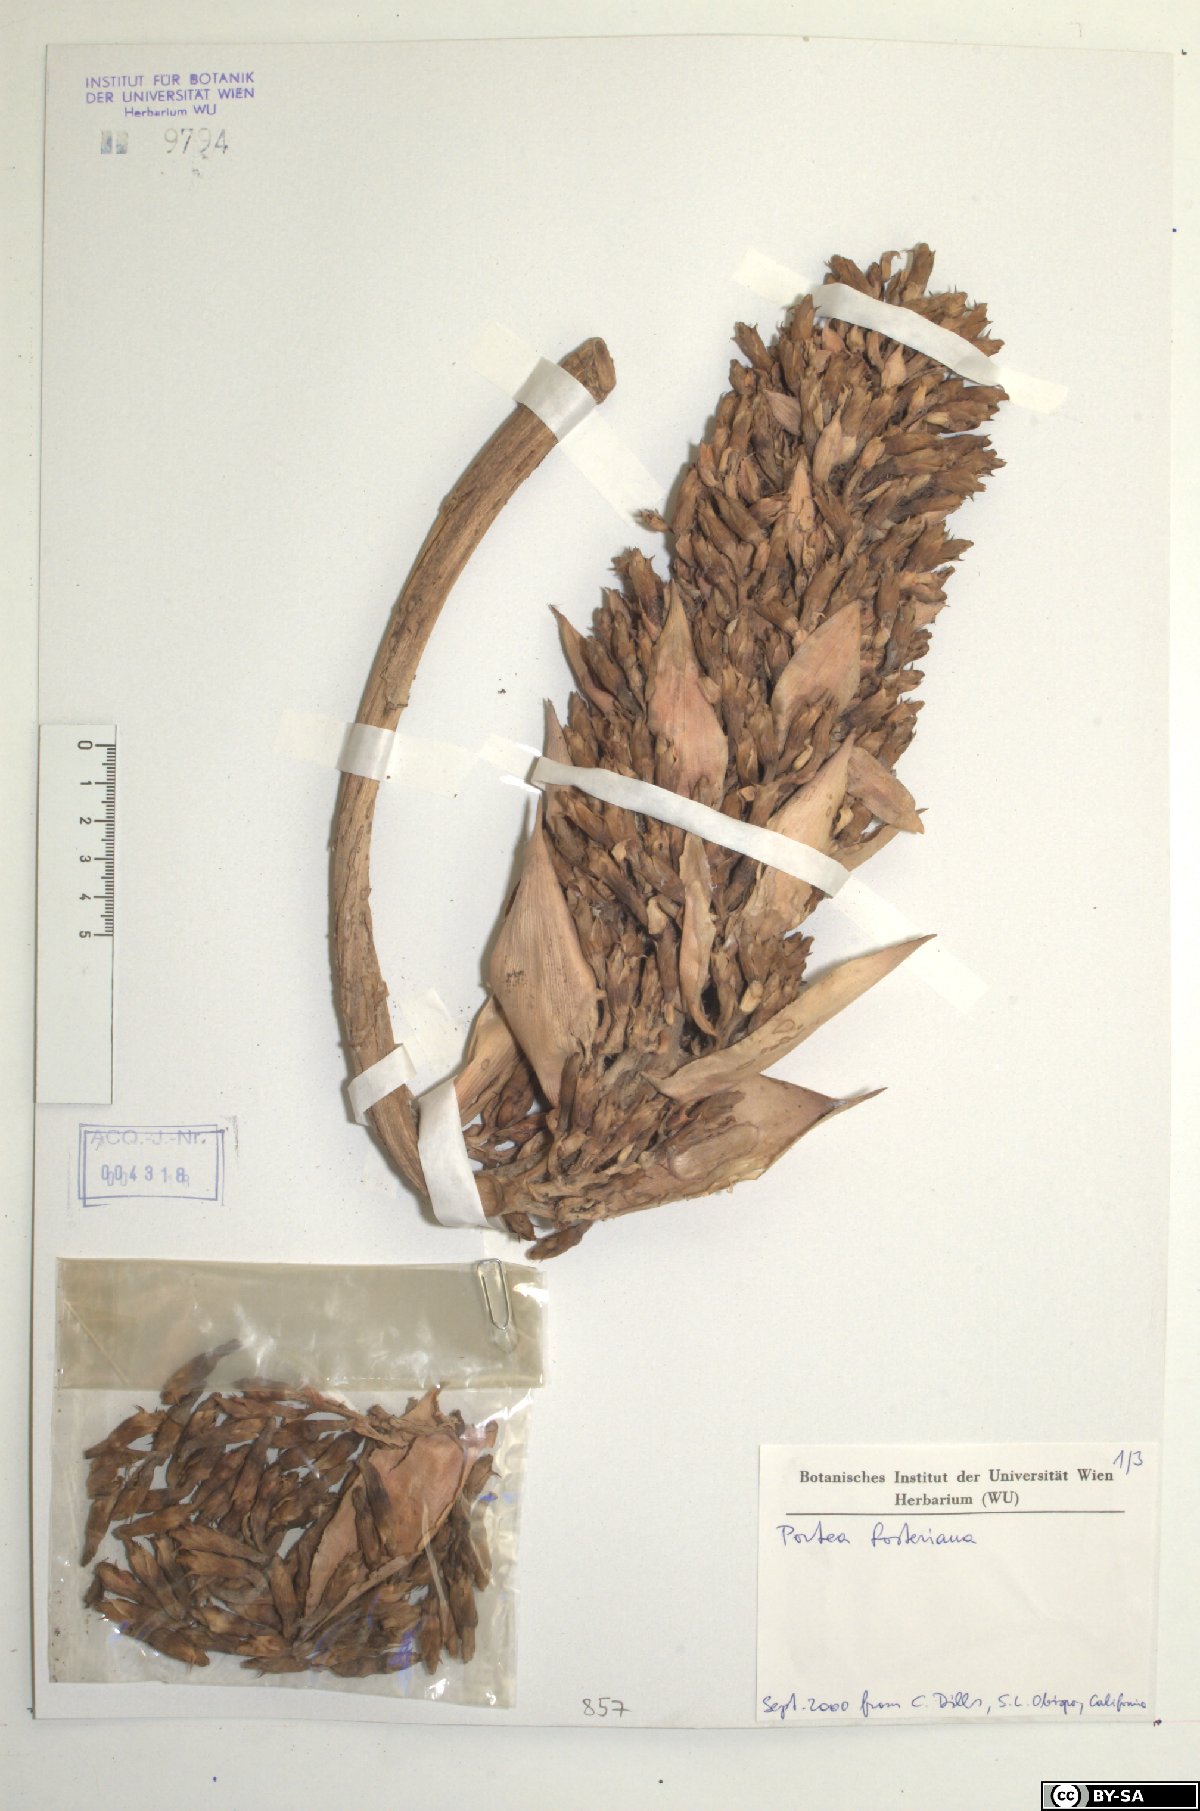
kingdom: Plantae
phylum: Tracheophyta
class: Liliopsida
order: Poales
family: Bromeliaceae
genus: Portea
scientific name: Portea fosteriana
